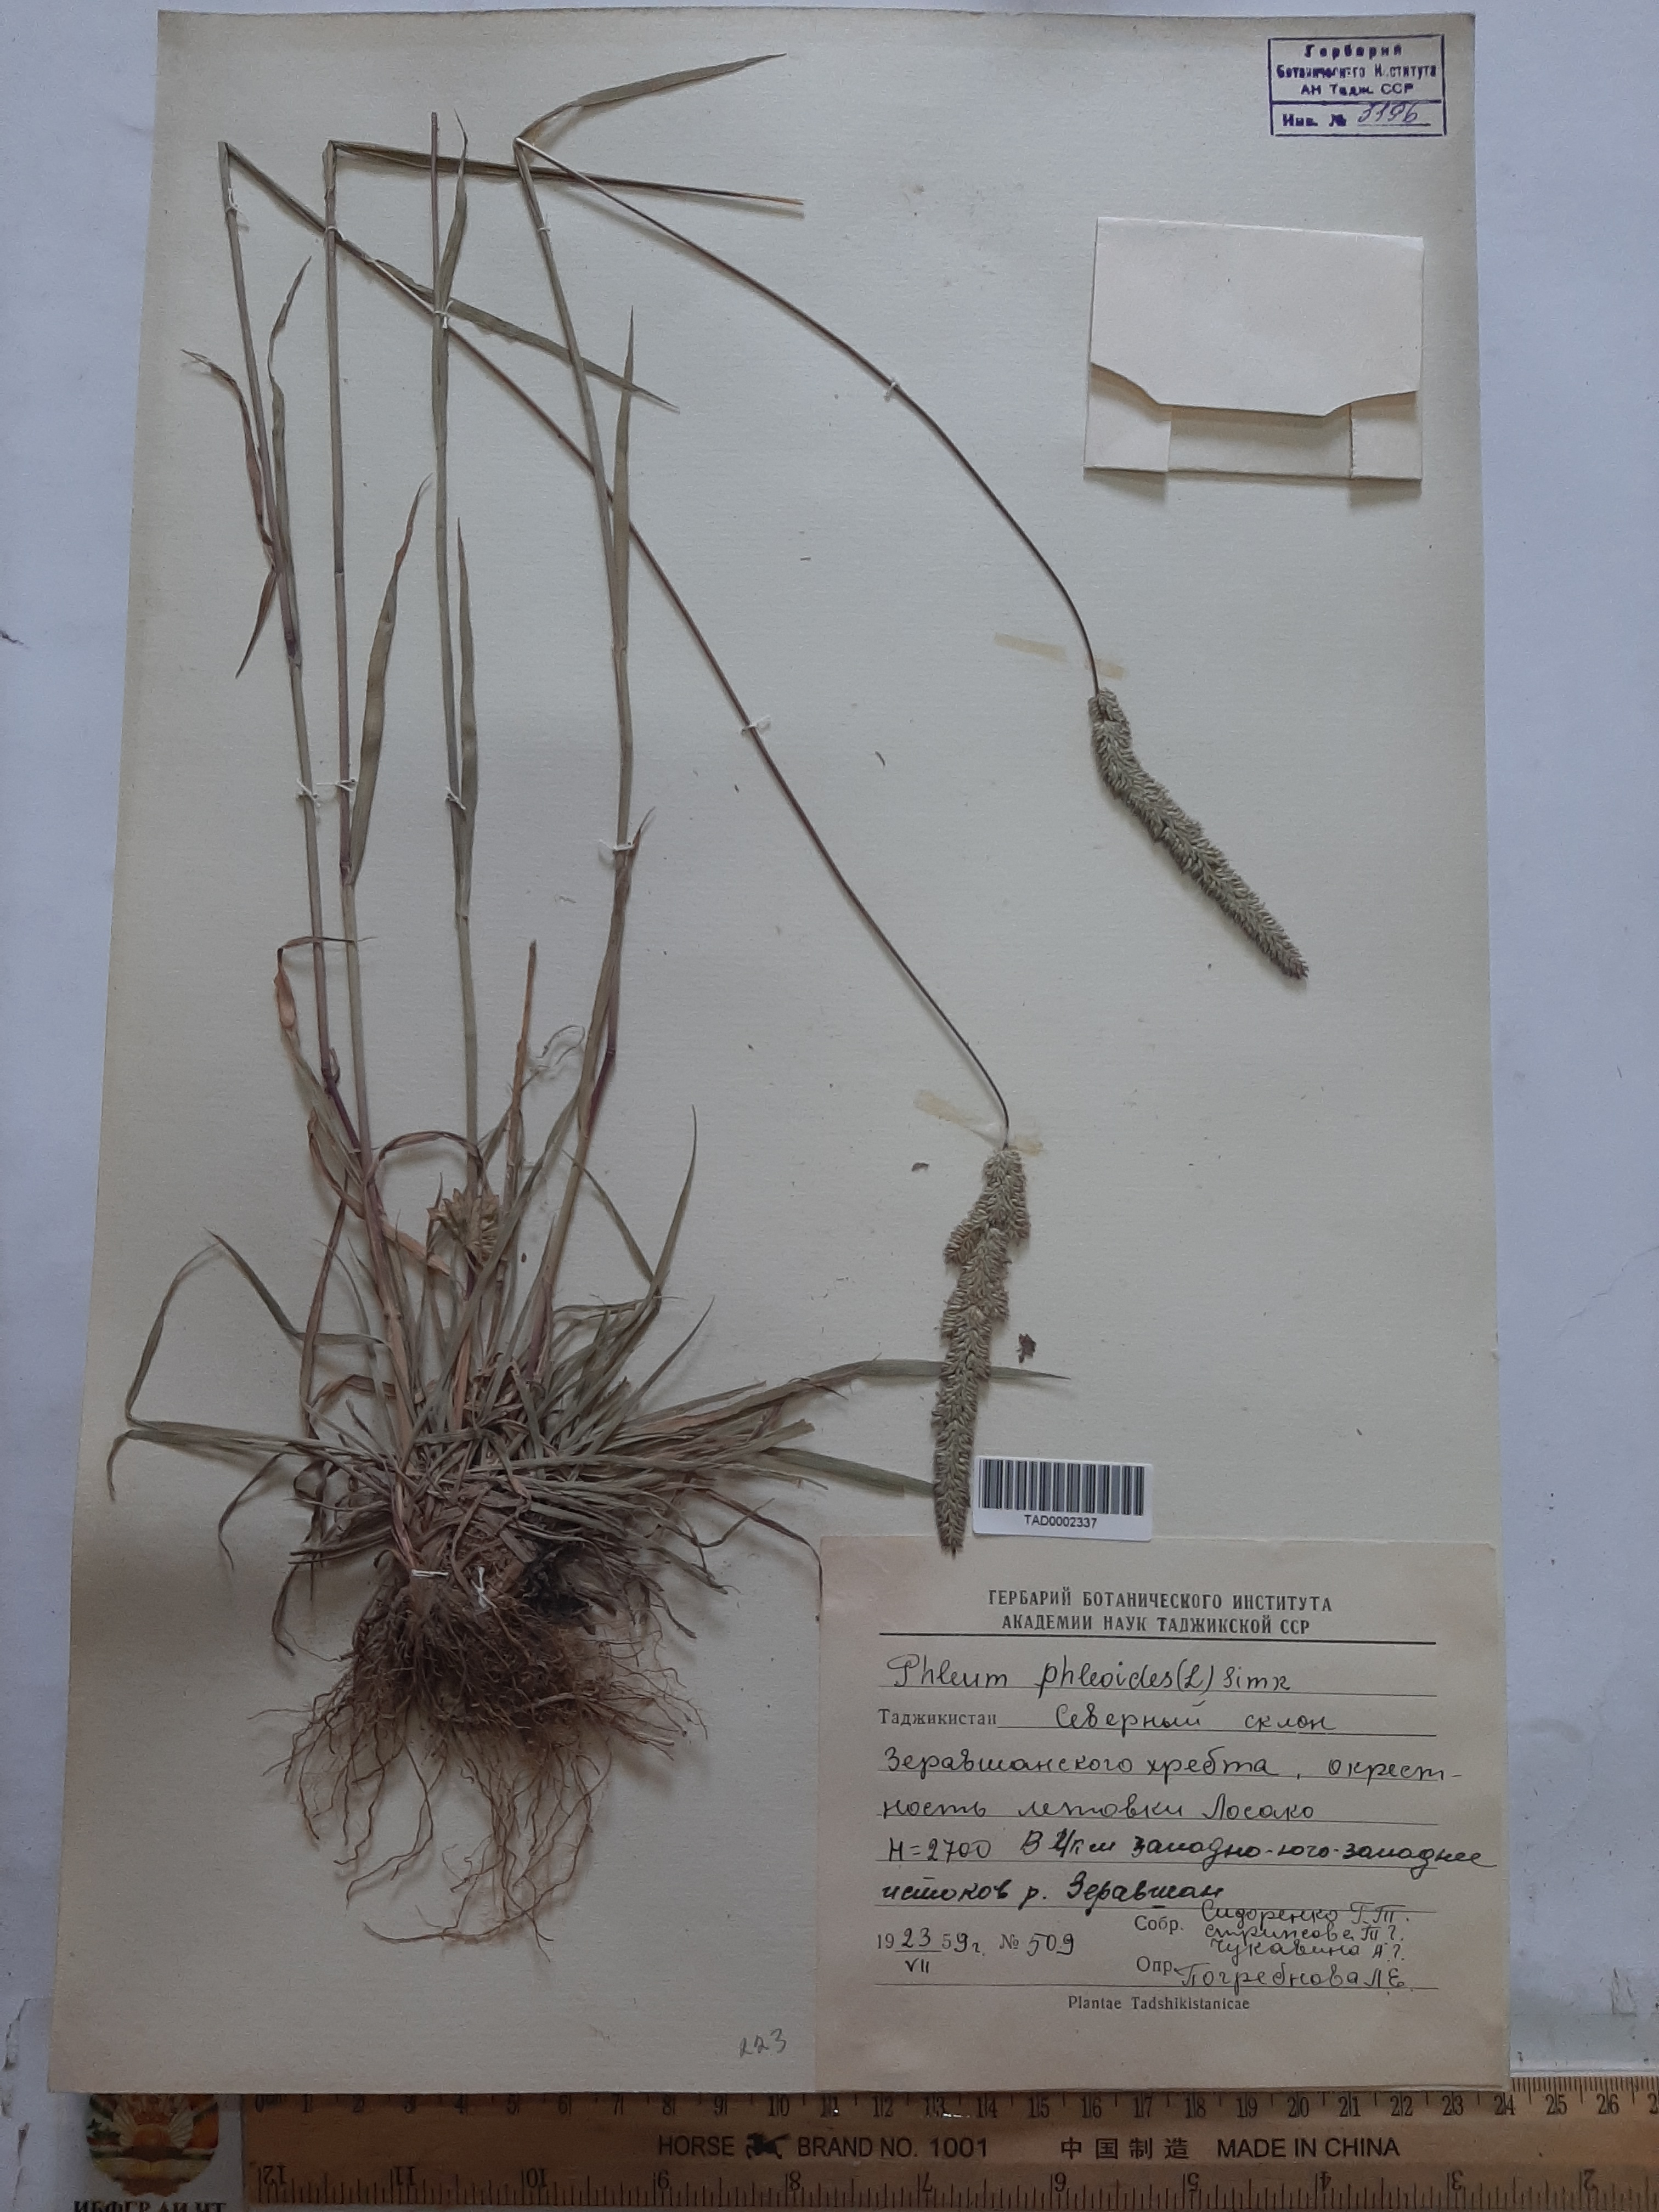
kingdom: Plantae
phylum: Tracheophyta
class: Liliopsida
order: Poales
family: Poaceae
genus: Phleum
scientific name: Phleum phleoides
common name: Purple-stem cat's-tail
